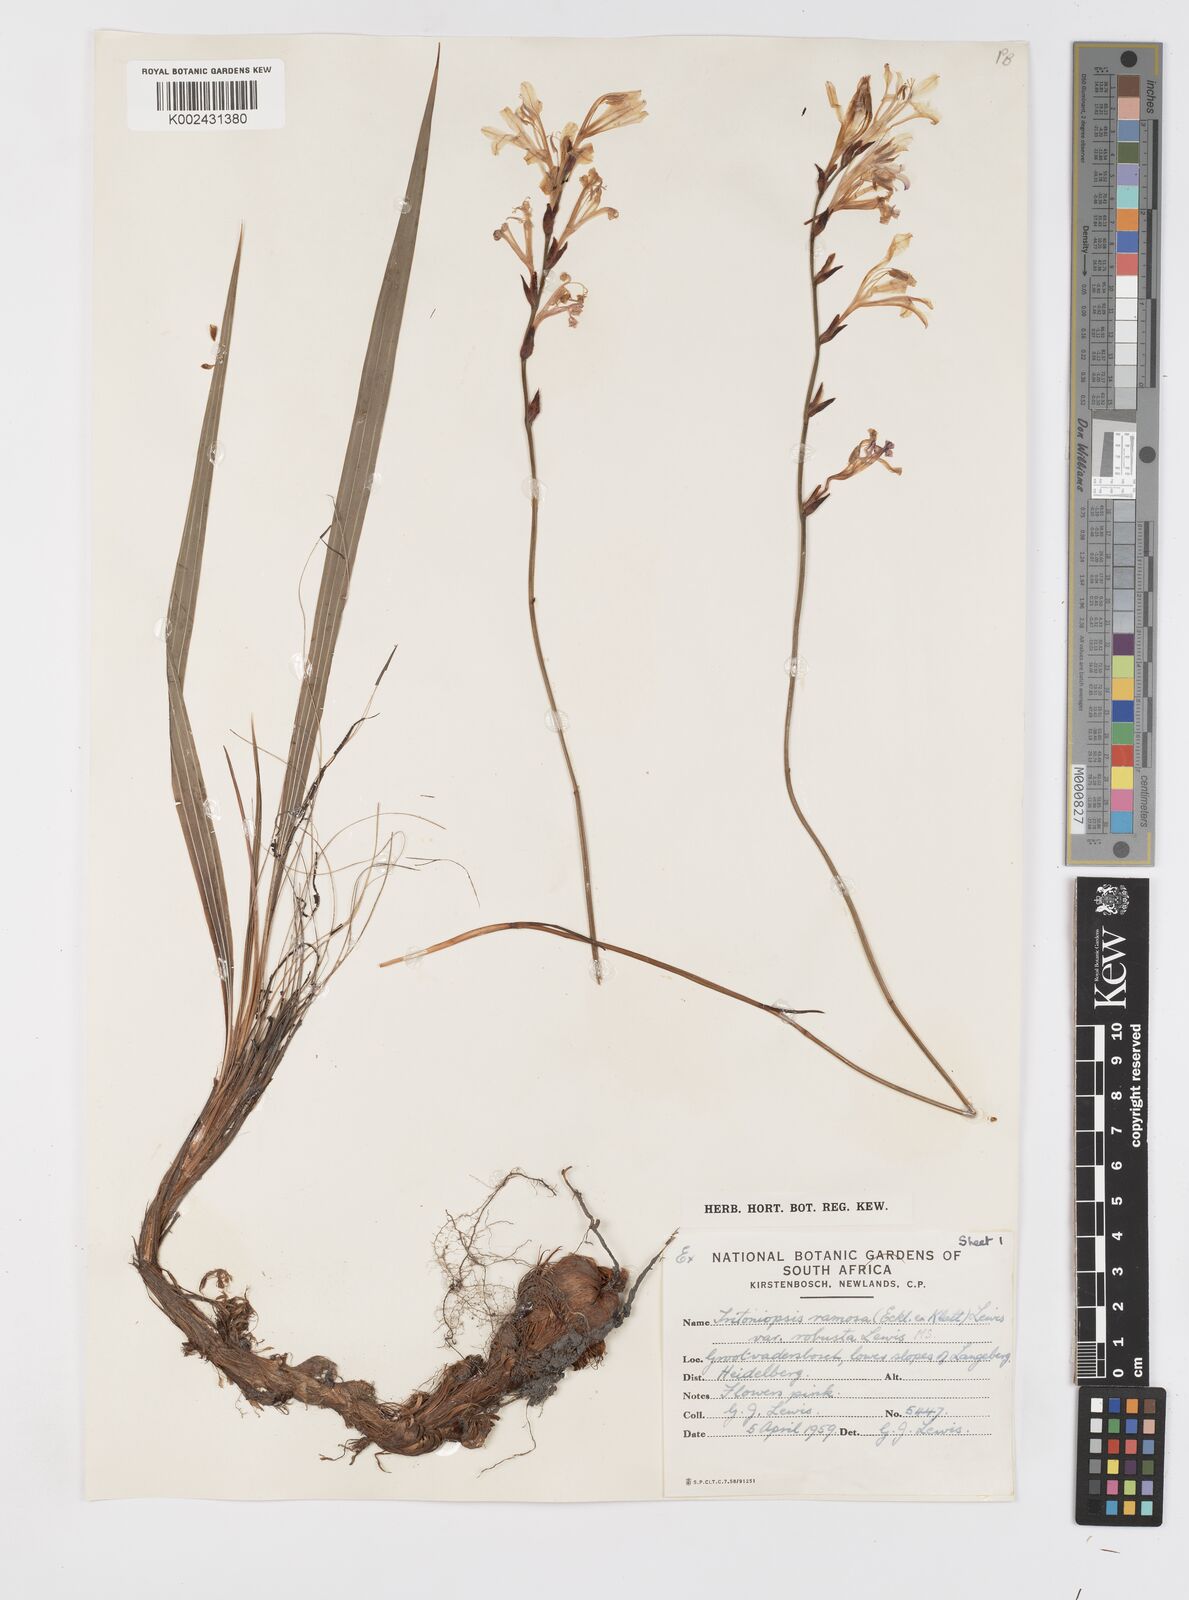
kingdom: Plantae
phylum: Tracheophyta
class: Liliopsida
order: Asparagales
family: Iridaceae
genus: Tritoniopsis
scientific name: Tritoniopsis ramosa
